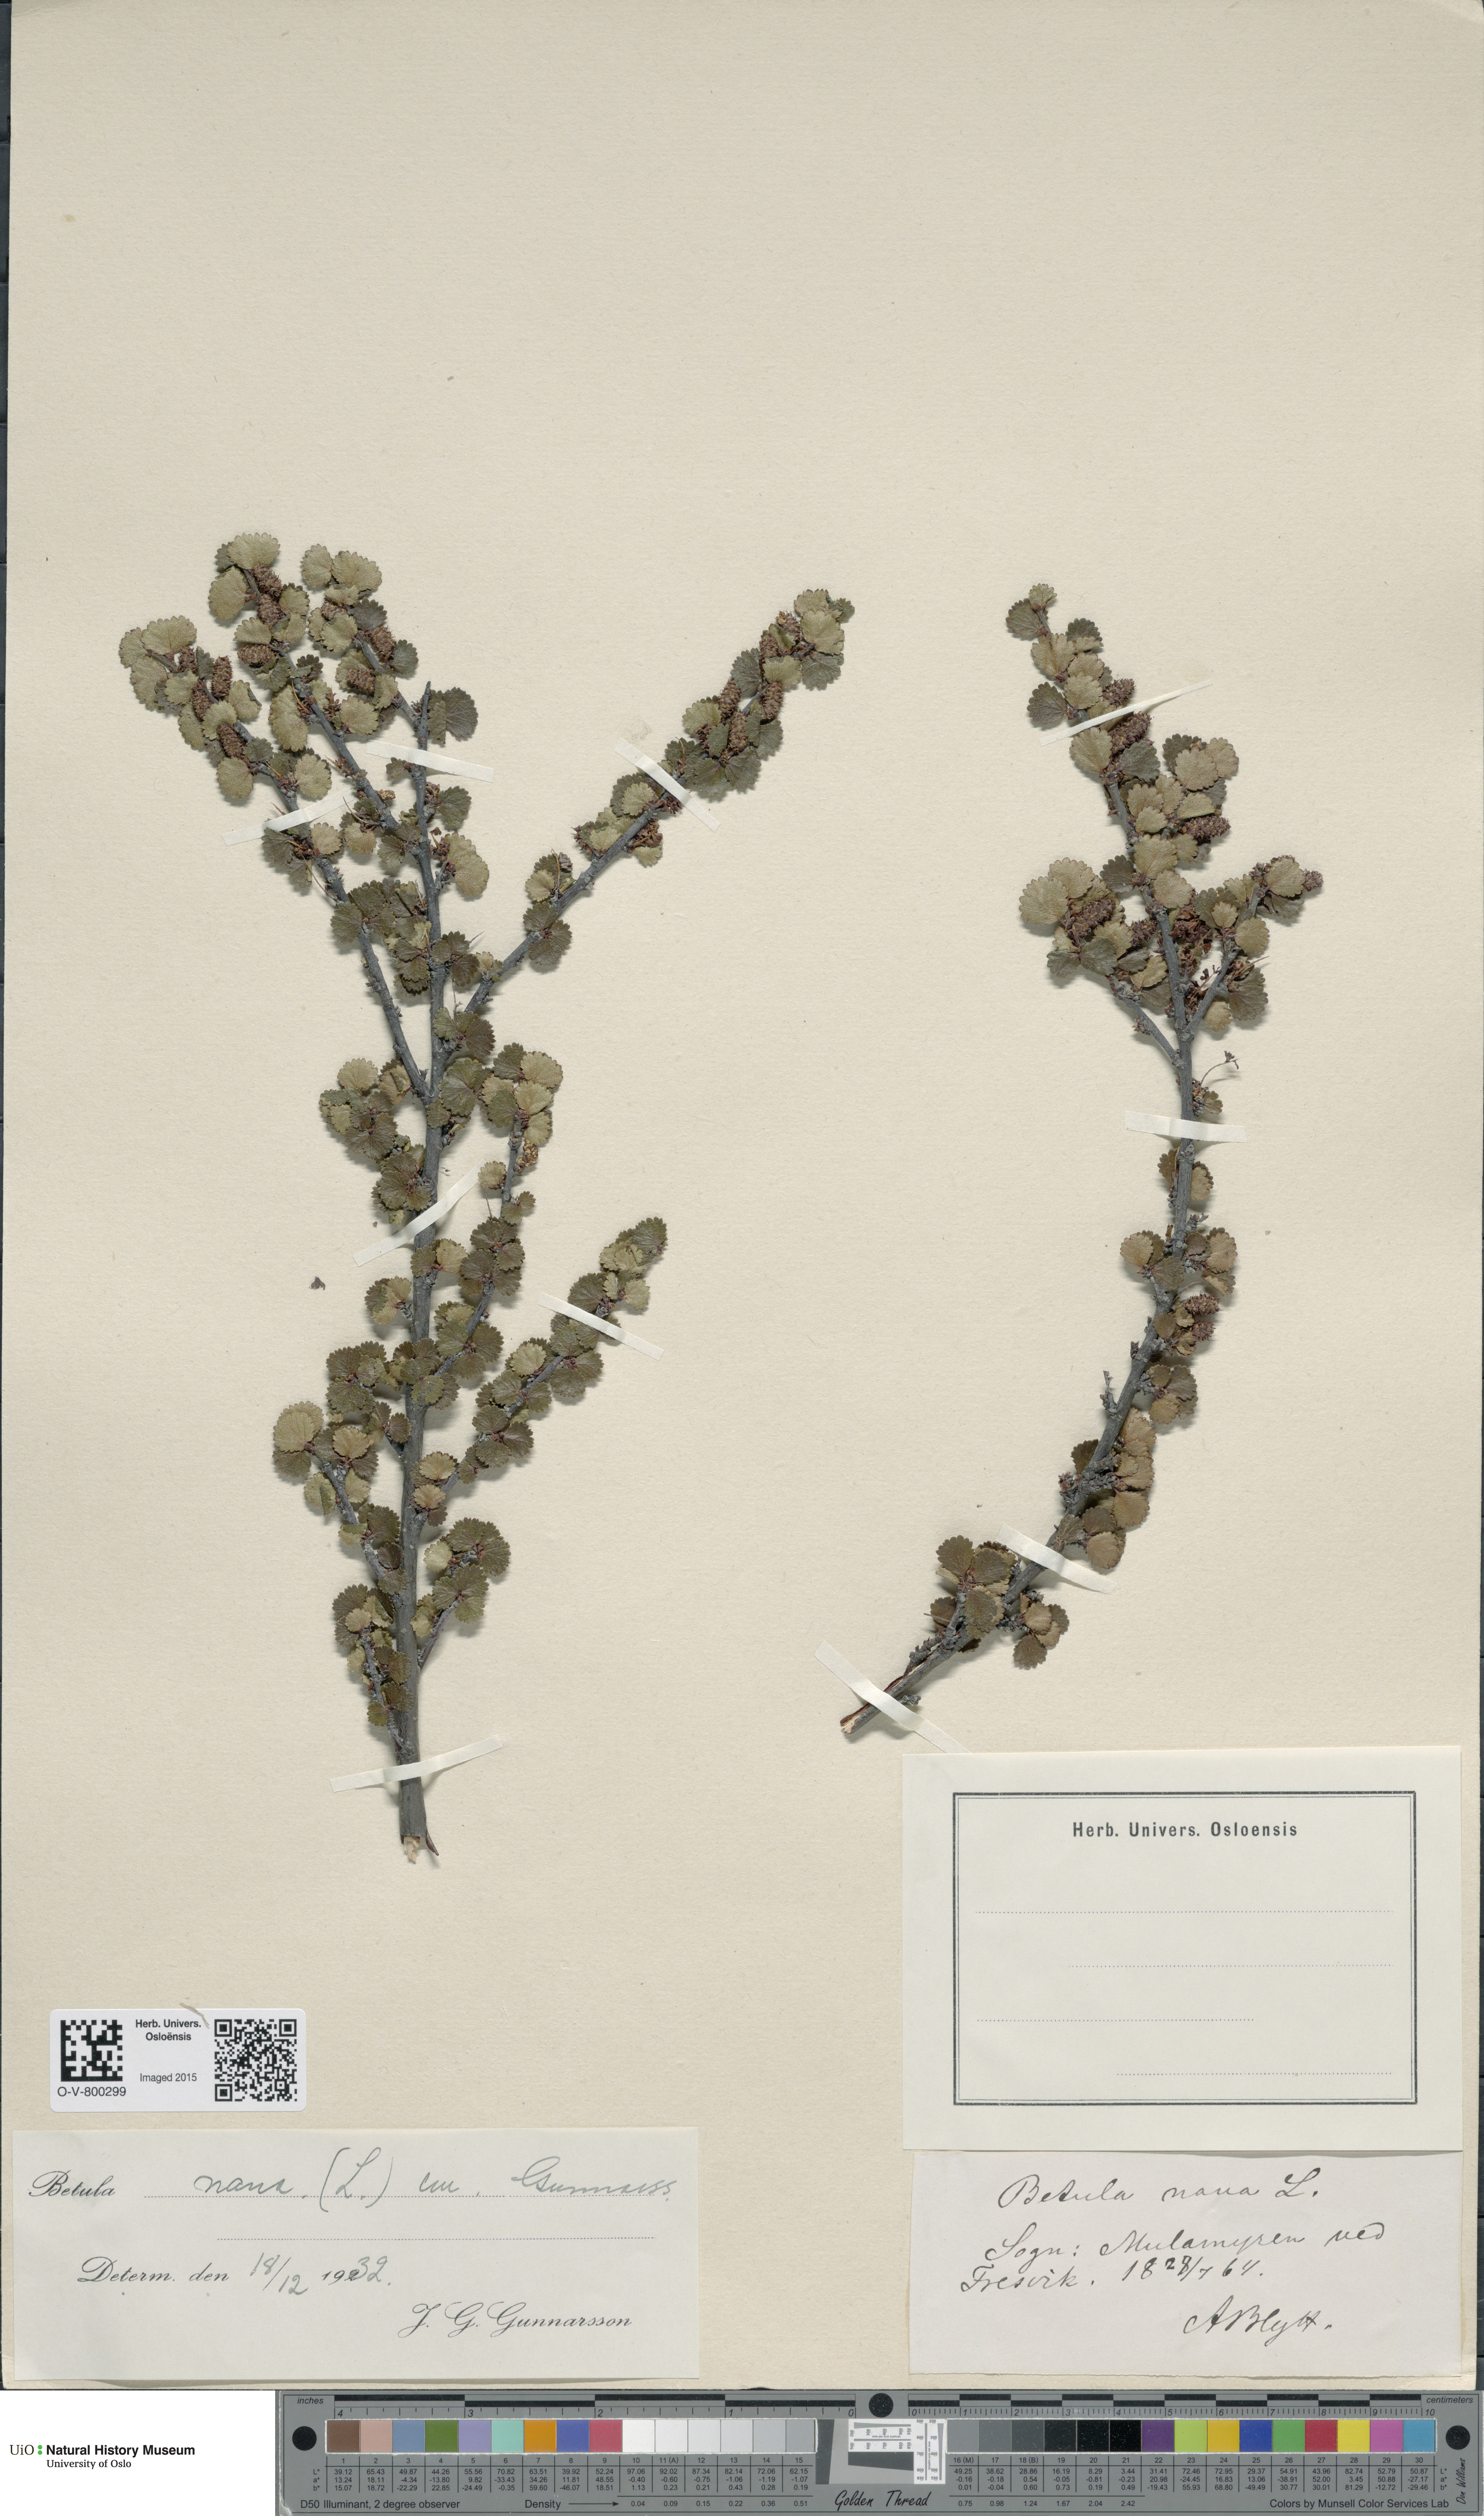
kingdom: Plantae
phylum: Tracheophyta
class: Magnoliopsida
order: Fagales
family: Betulaceae
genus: Betula
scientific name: Betula nana
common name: Arctic dwarf birch
